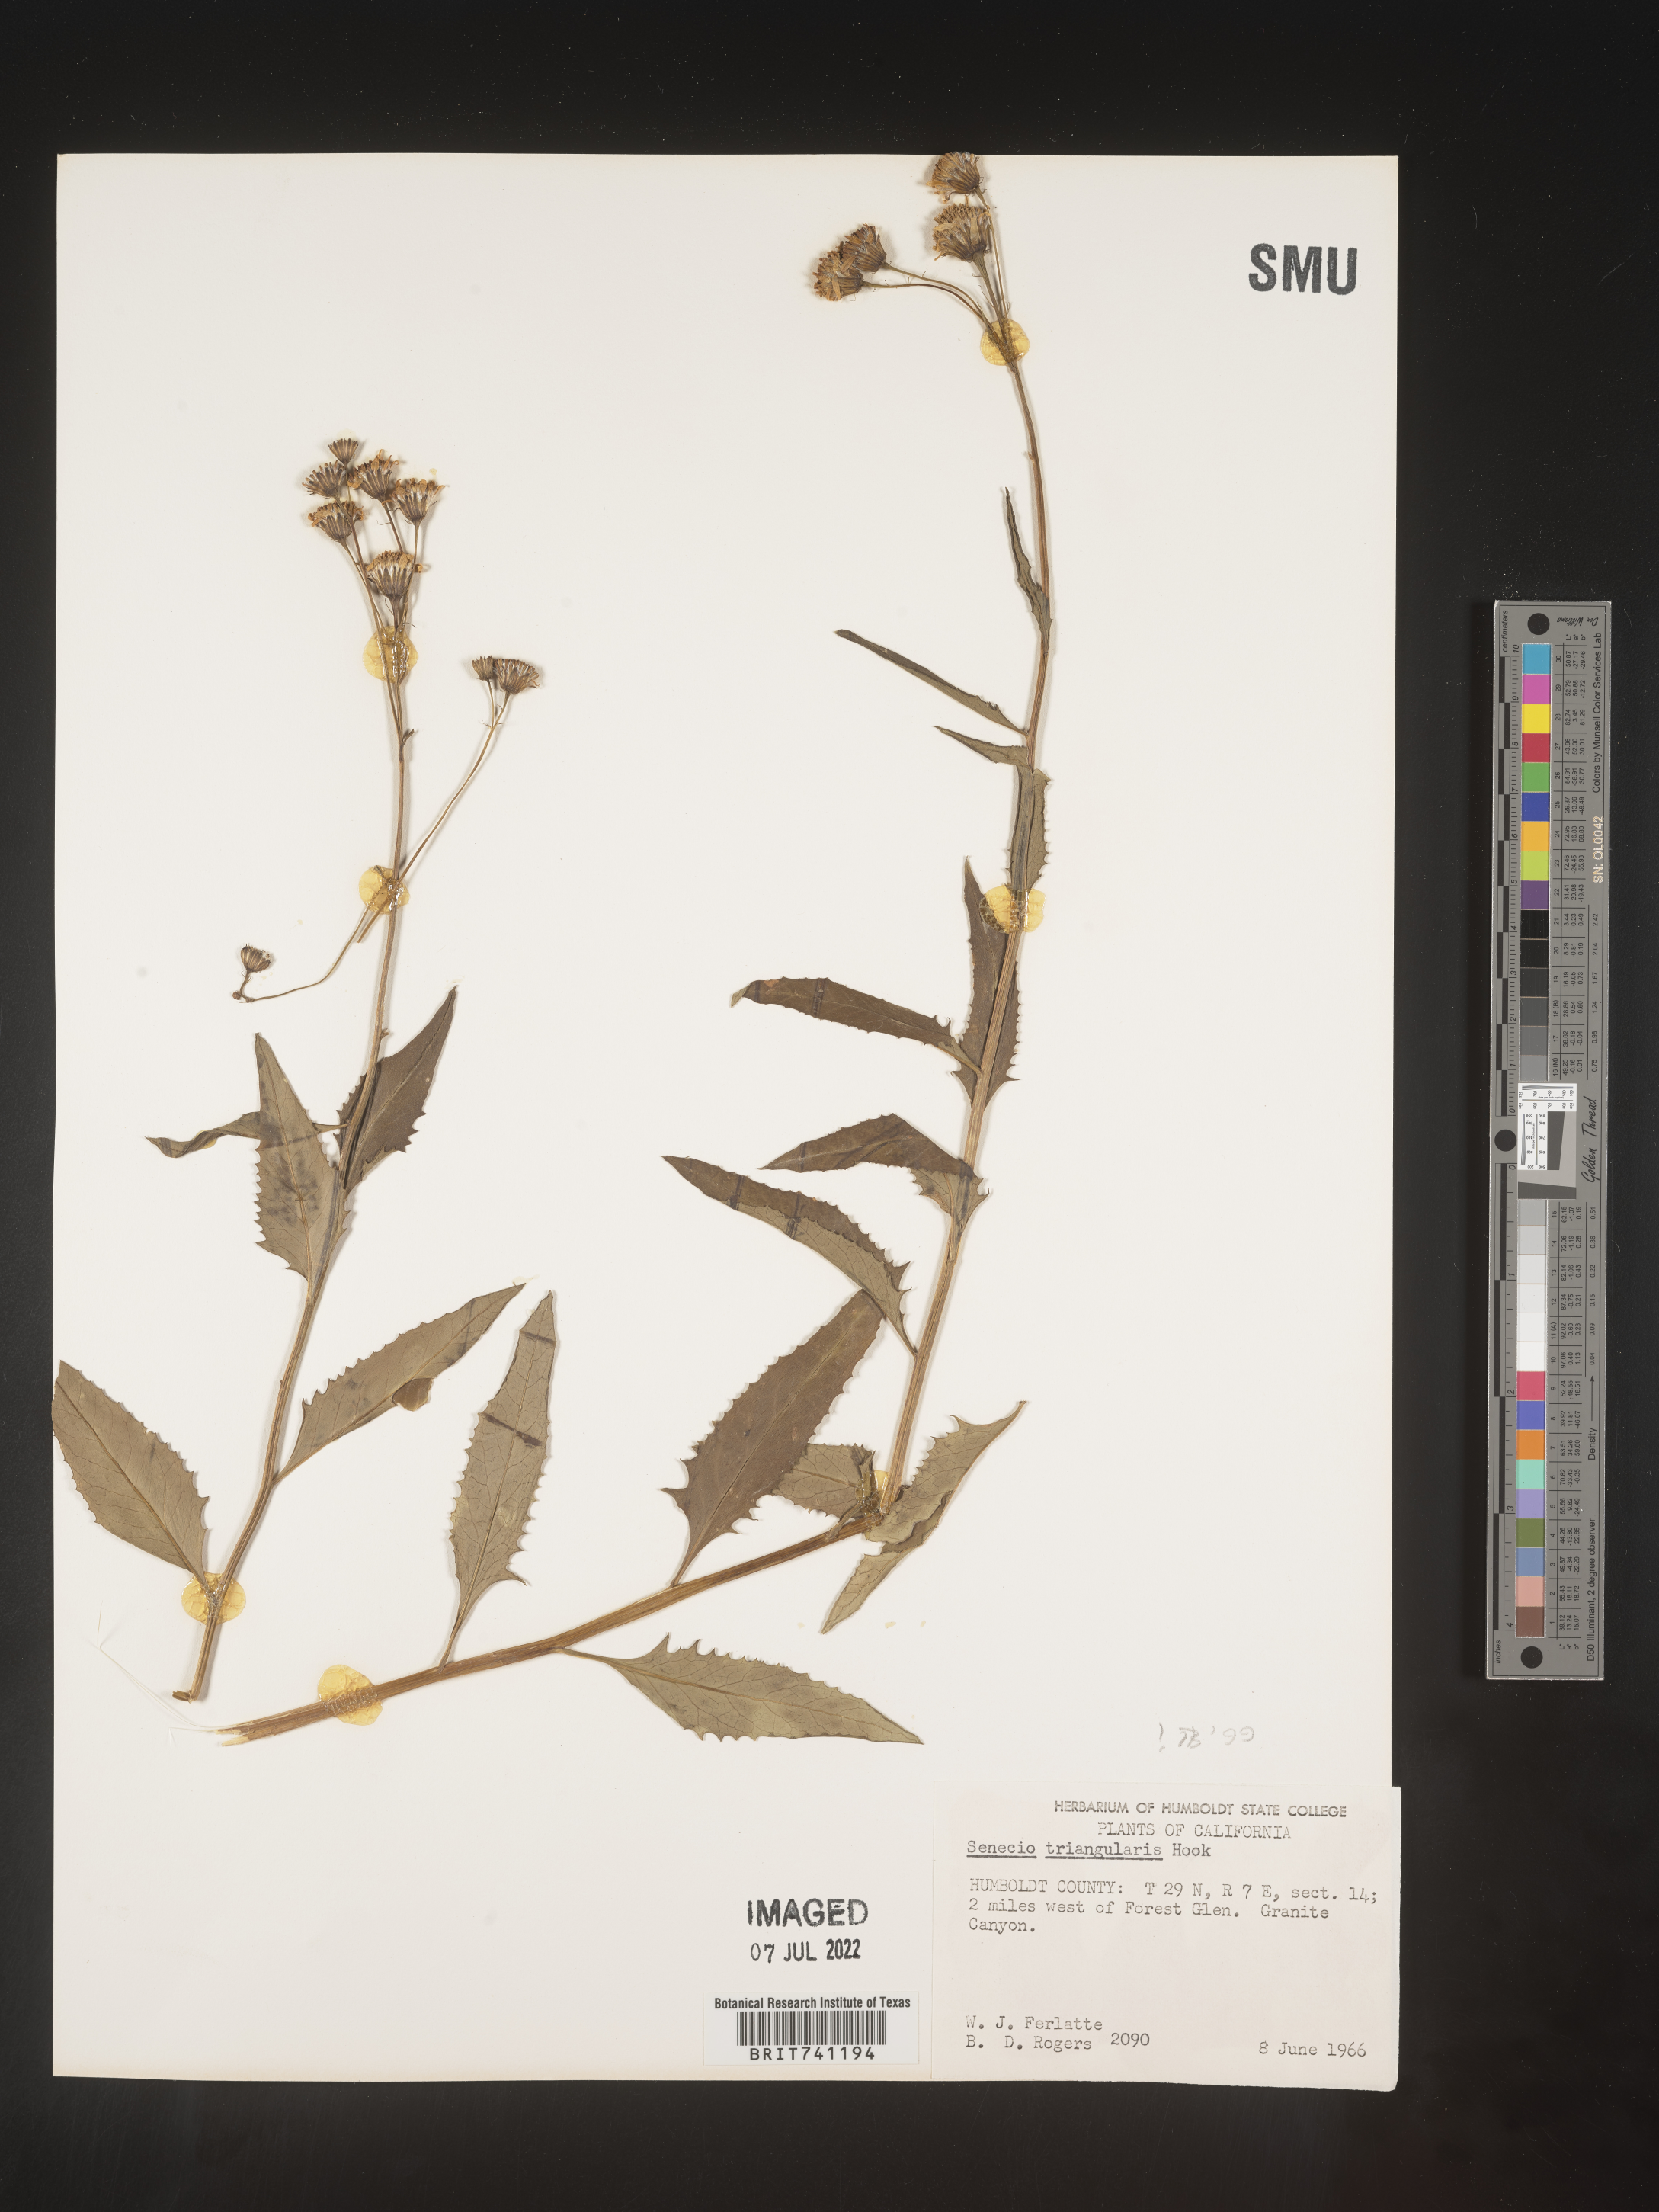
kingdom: Plantae
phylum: Tracheophyta
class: Magnoliopsida
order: Asterales
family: Asteraceae
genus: Senecio
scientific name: Senecio triangularis
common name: Arrowleaf butterweed
